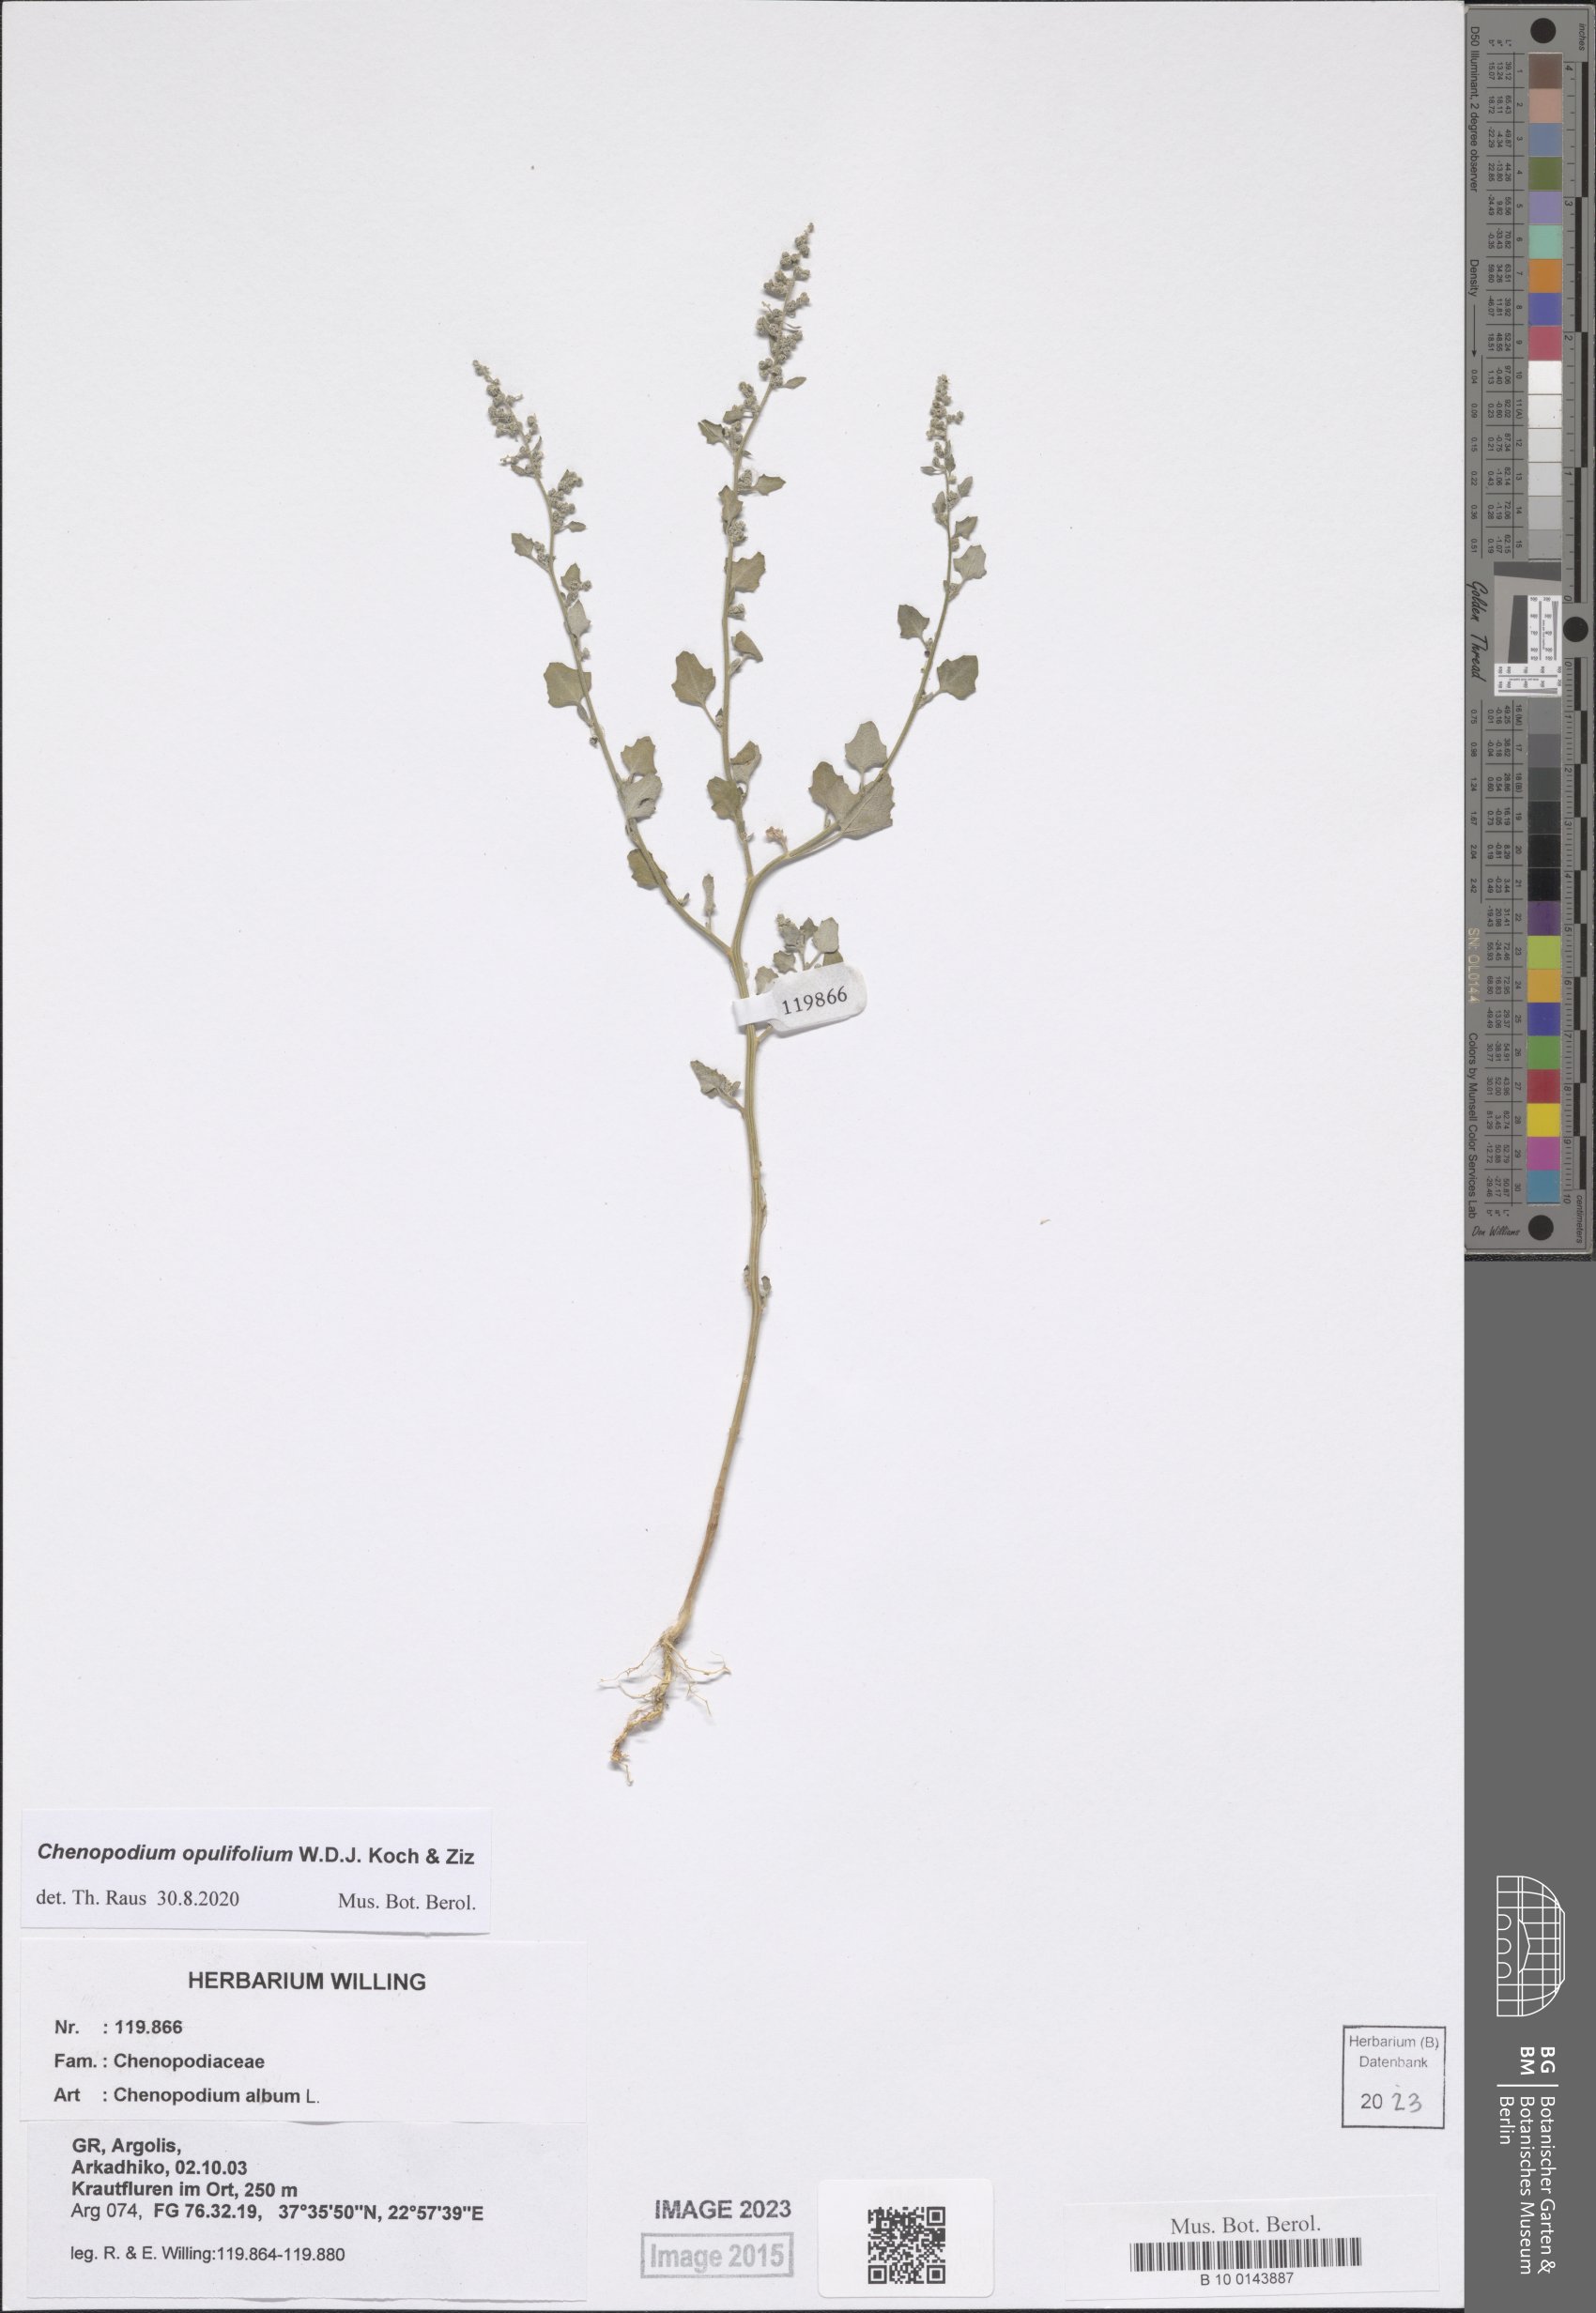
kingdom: Plantae
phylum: Tracheophyta
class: Magnoliopsida
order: Caryophyllales
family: Amaranthaceae
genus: Chenopodium
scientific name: Chenopodium opulifolium
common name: Grey goosefoot
